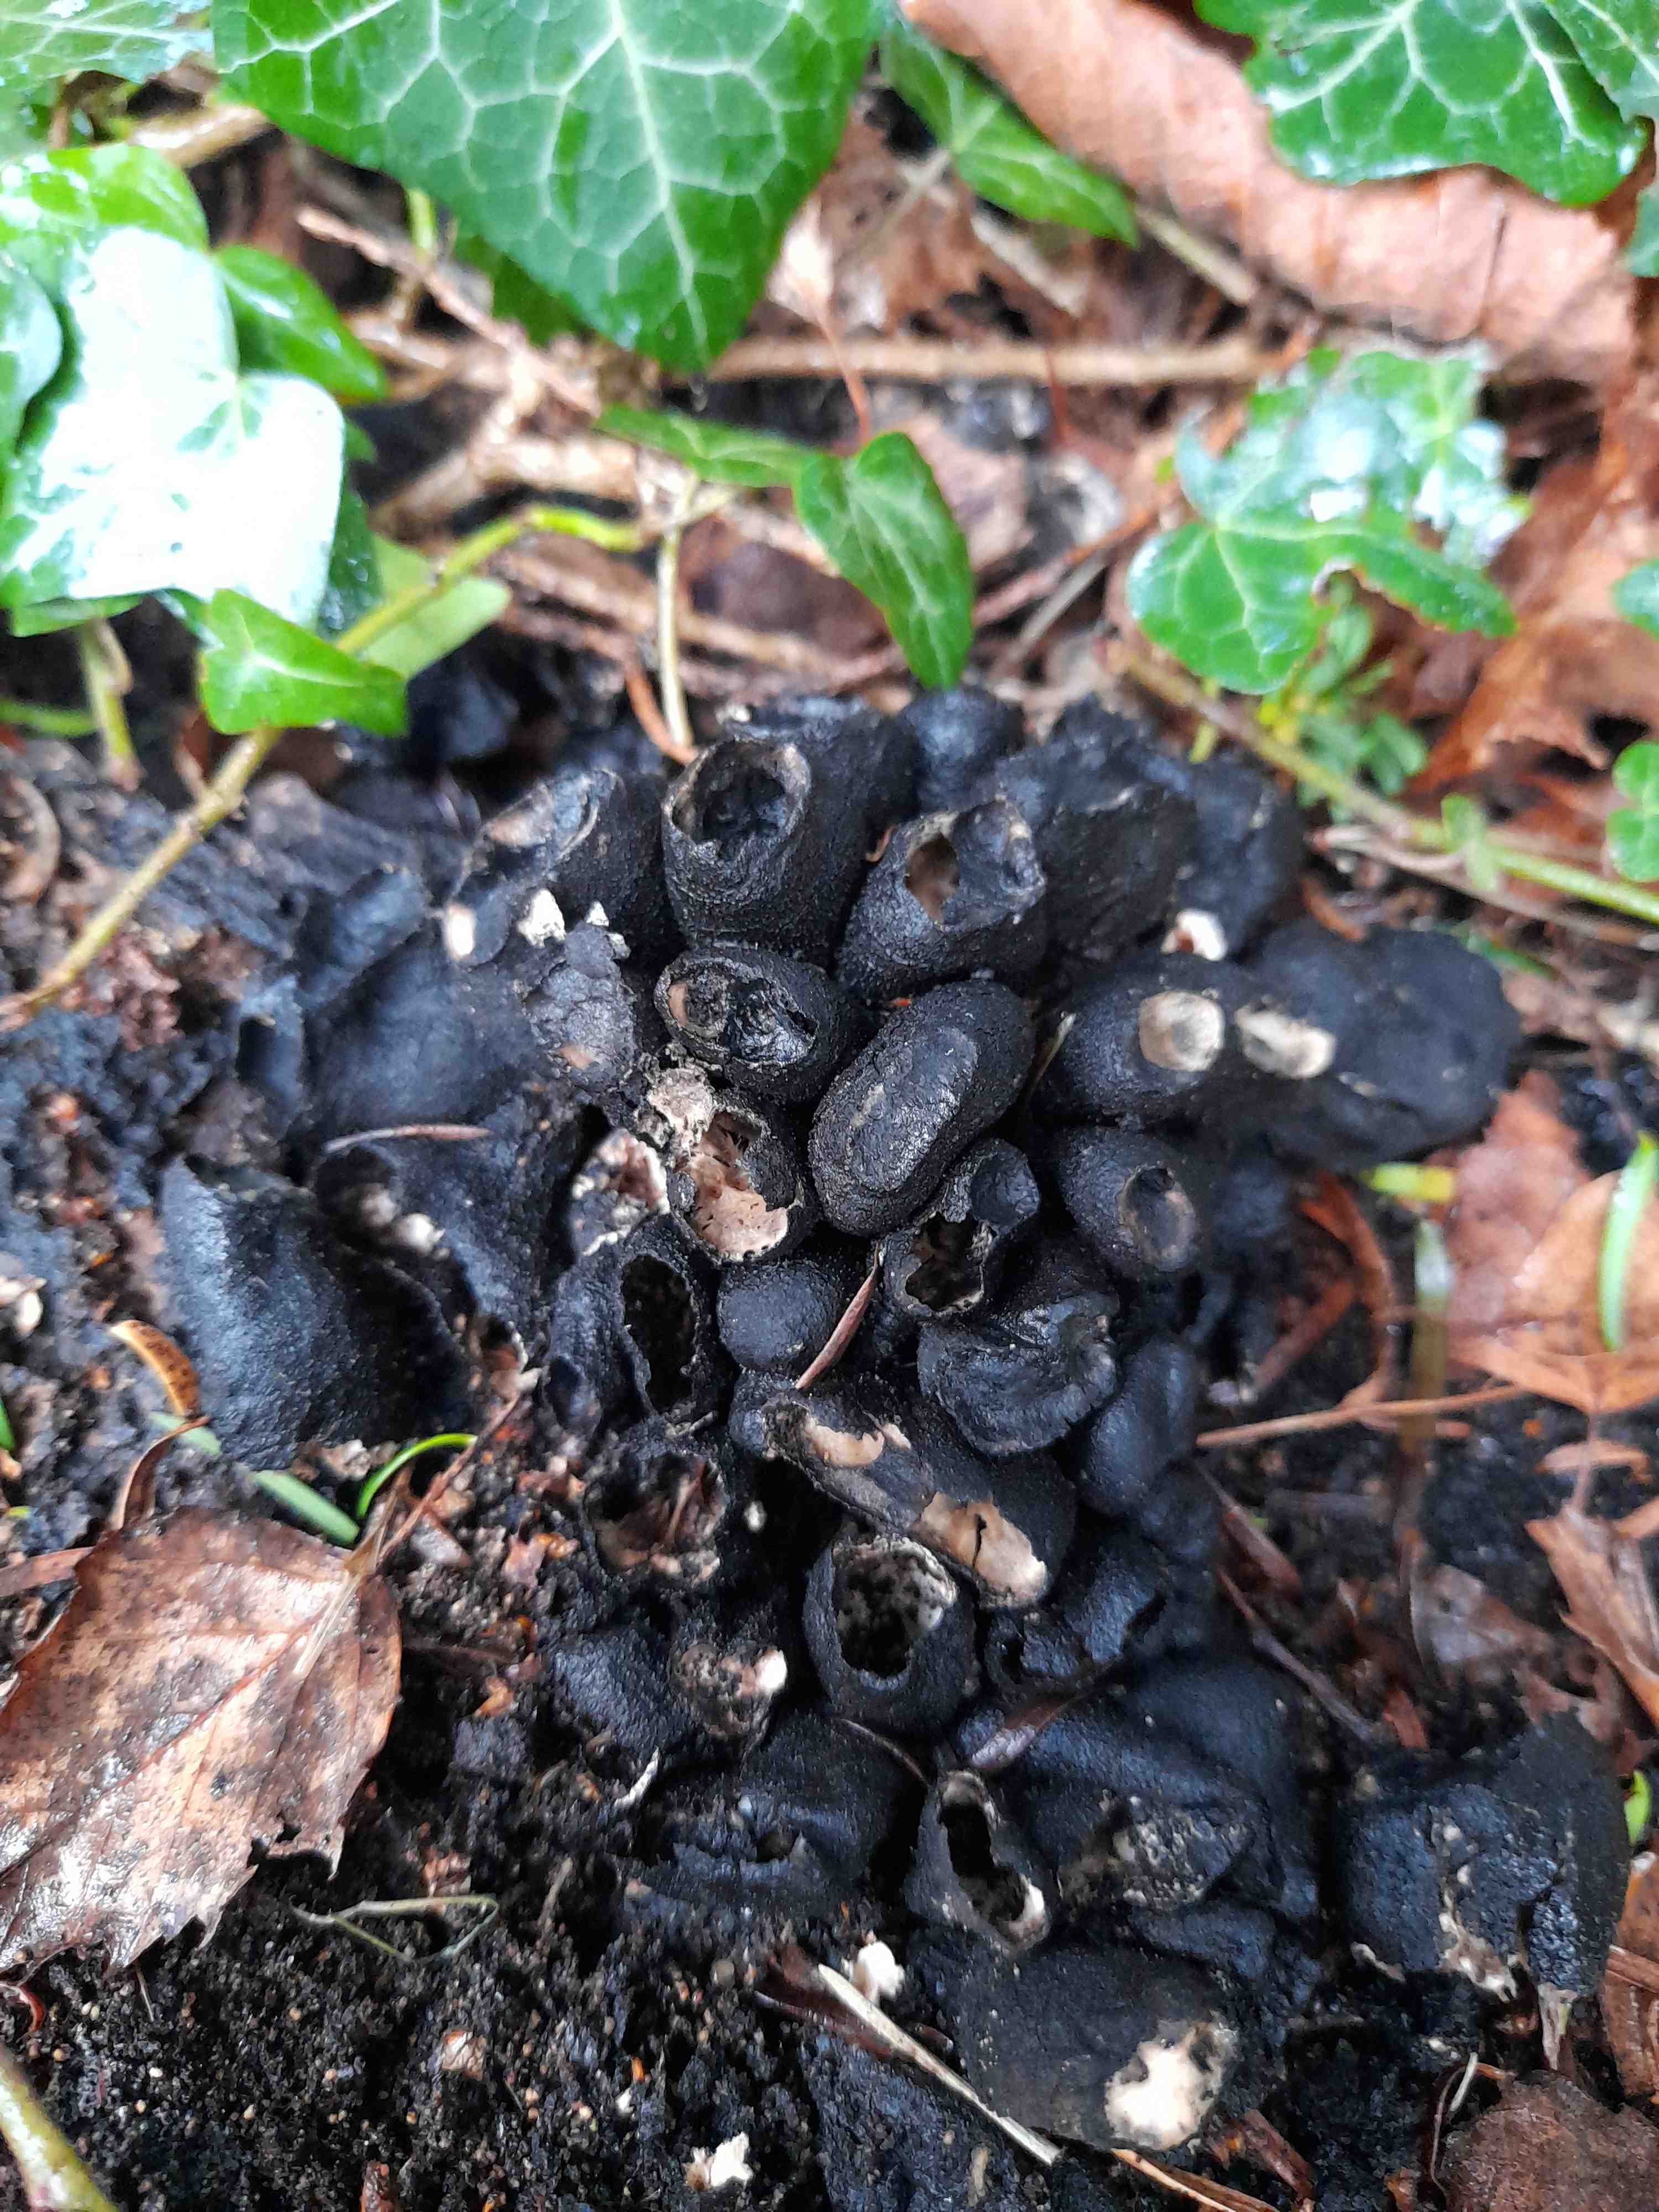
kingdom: Fungi
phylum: Ascomycota
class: Sordariomycetes
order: Xylariales
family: Xylariaceae
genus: Xylaria
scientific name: Xylaria polymorpha
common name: kølle-stødsvamp
